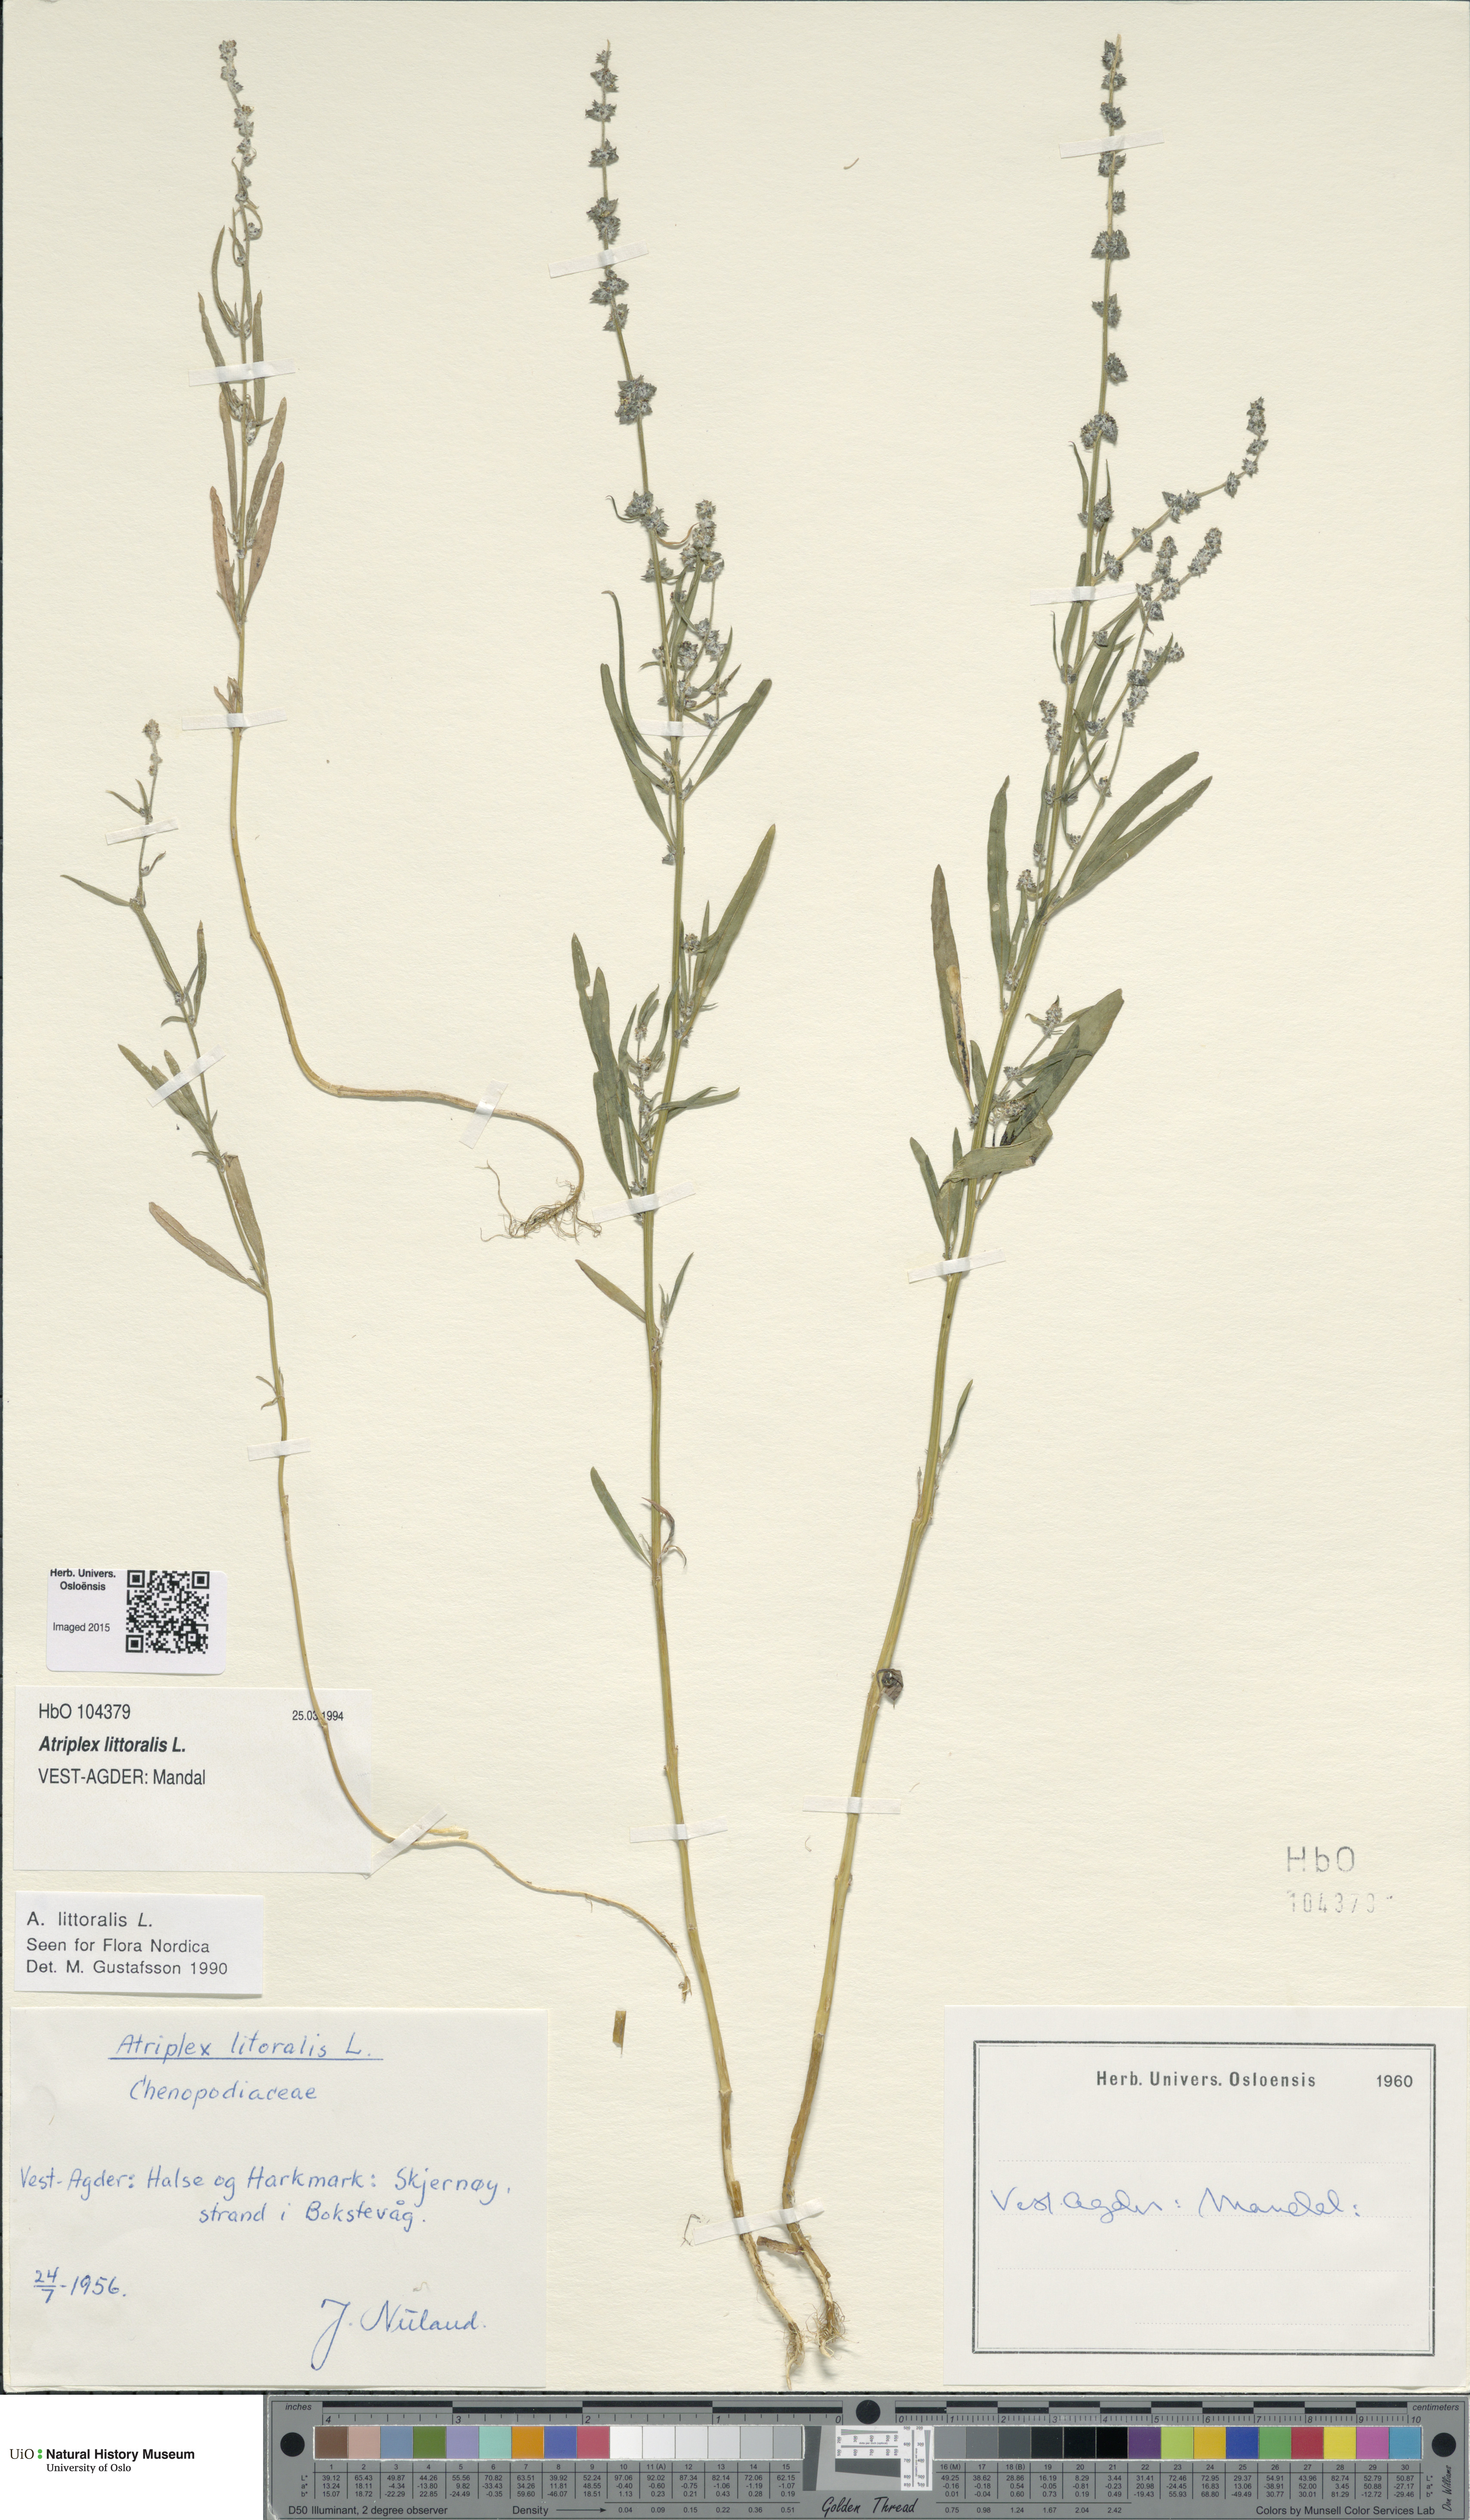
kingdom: Plantae
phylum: Tracheophyta
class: Magnoliopsida
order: Caryophyllales
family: Amaranthaceae
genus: Atriplex
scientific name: Atriplex littoralis
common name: Grass-leaved orache
